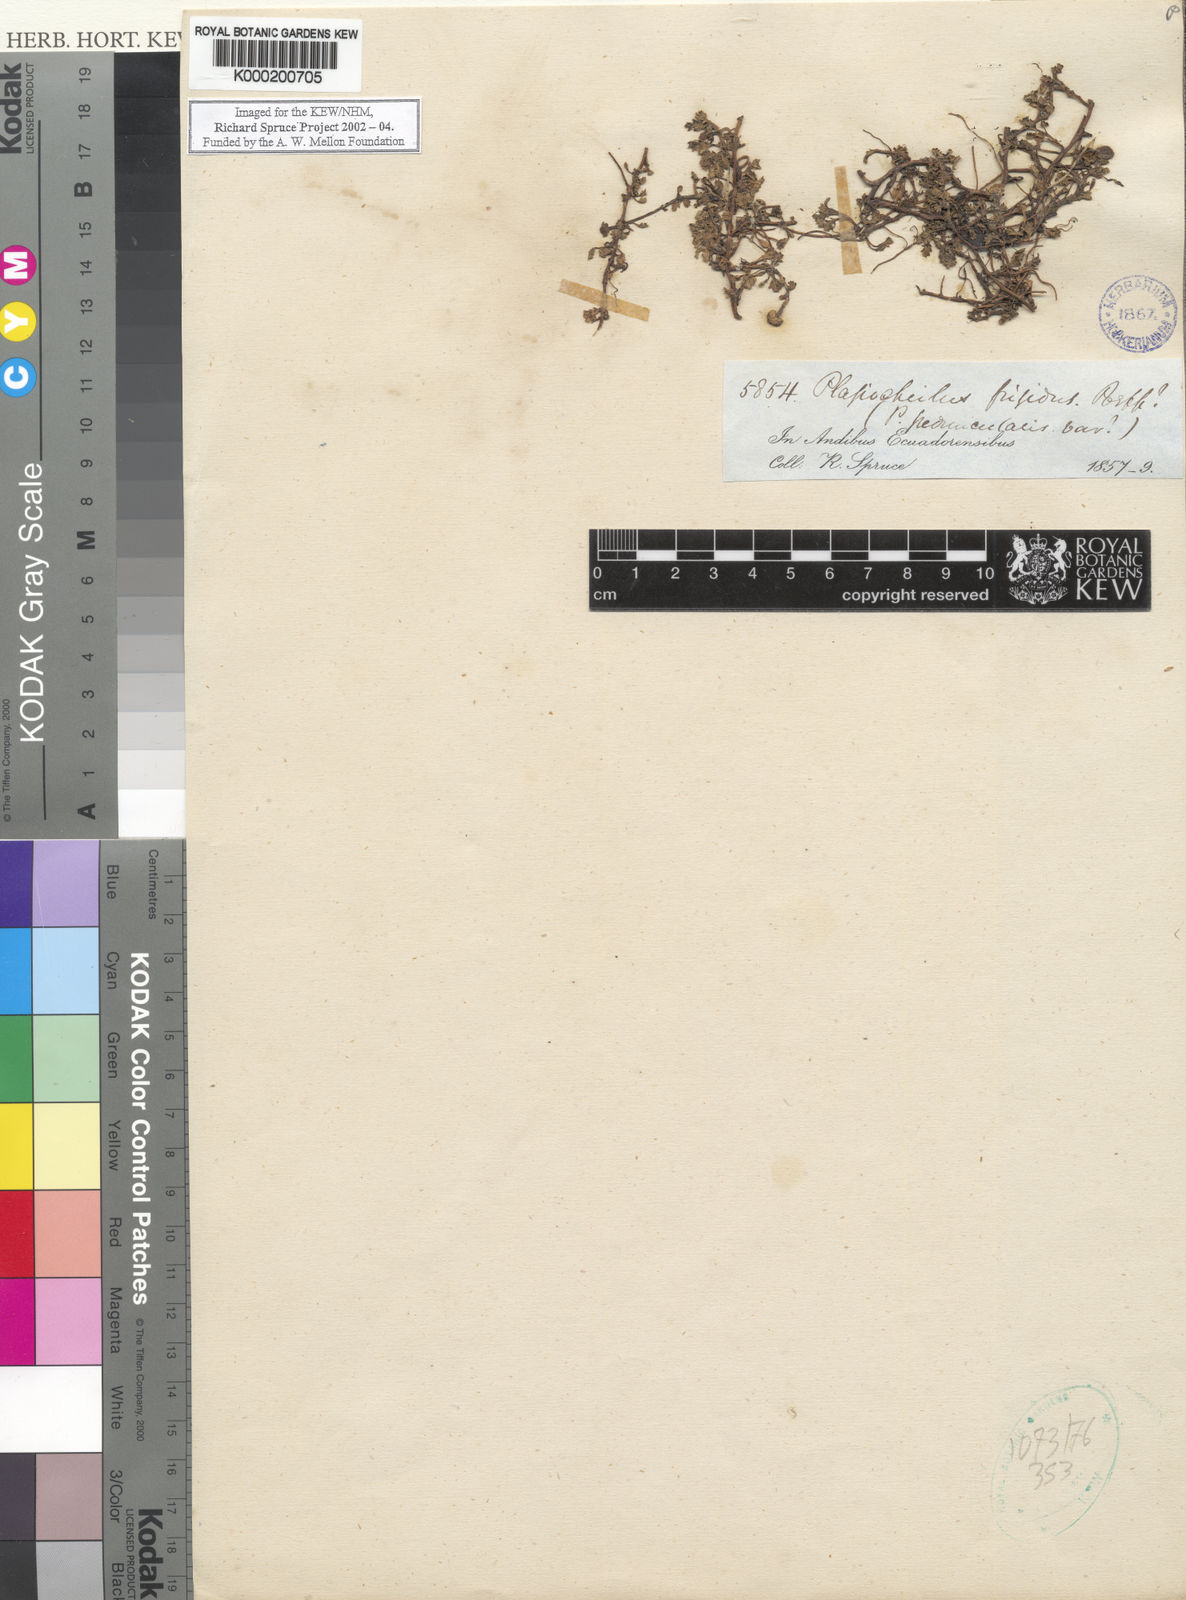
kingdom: Plantae
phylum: Tracheophyta
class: Magnoliopsida
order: Asterales
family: Asteraceae
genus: Plagiocheilus
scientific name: Plagiocheilus frigidus
